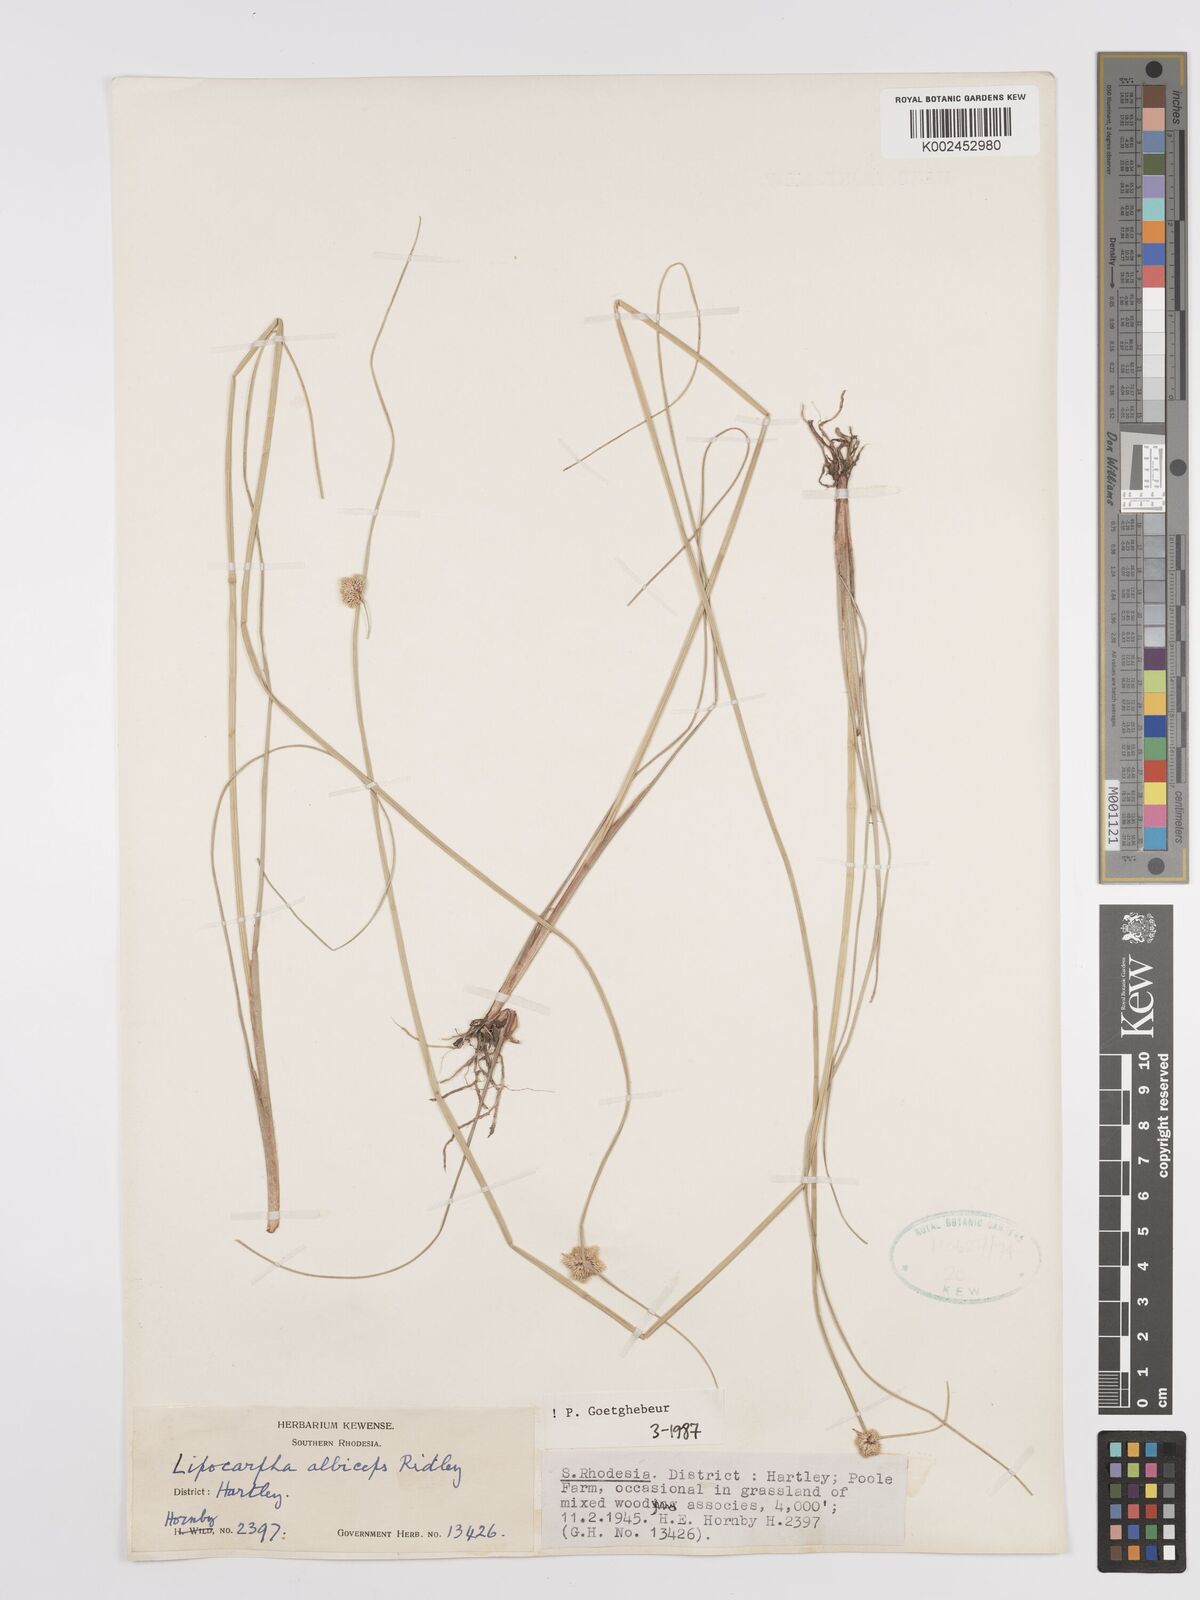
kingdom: Plantae
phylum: Tracheophyta
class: Liliopsida
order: Poales
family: Cyperaceae
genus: Cyperus
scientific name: Cyperus albiceps
